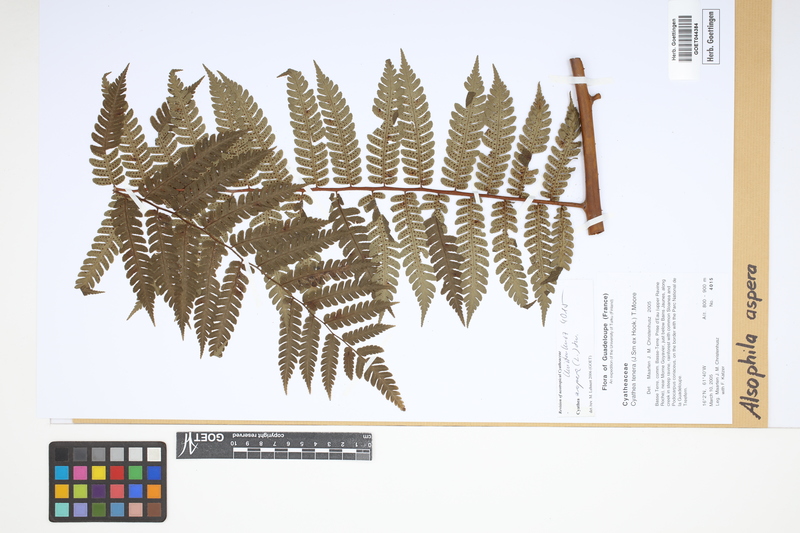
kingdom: Plantae
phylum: Tracheophyta
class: Polypodiopsida
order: Cyatheales
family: Cyatheaceae
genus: Cyathea
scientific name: Cyathea aspera
